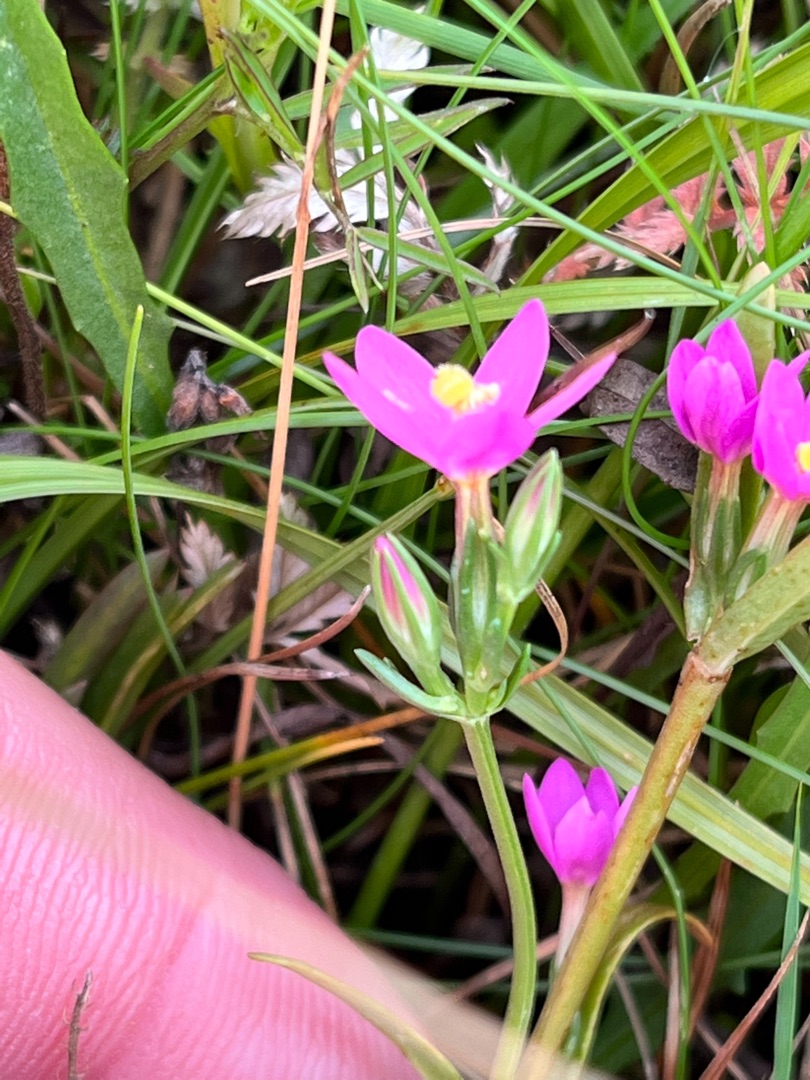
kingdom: Plantae
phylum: Tracheophyta
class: Magnoliopsida
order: Gentianales
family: Gentianaceae
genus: Centaurium
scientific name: Centaurium erythraea
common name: Mark-tusindgylden
